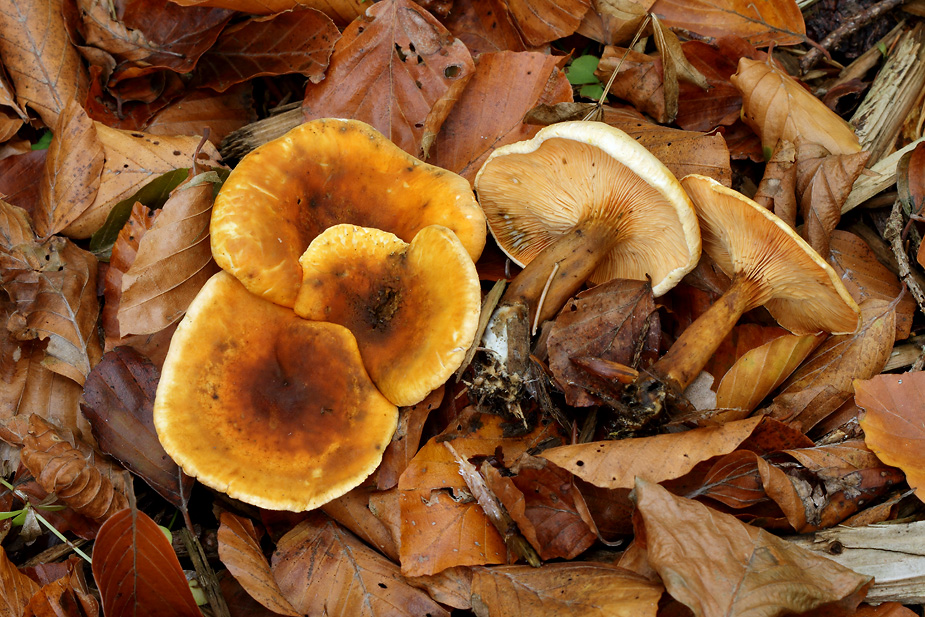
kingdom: Fungi
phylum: Basidiomycota
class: Agaricomycetes
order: Boletales
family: Hygrophoropsidaceae
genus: Hygrophoropsis
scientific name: Hygrophoropsis aurantiaca
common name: almindelig orangekantarel
